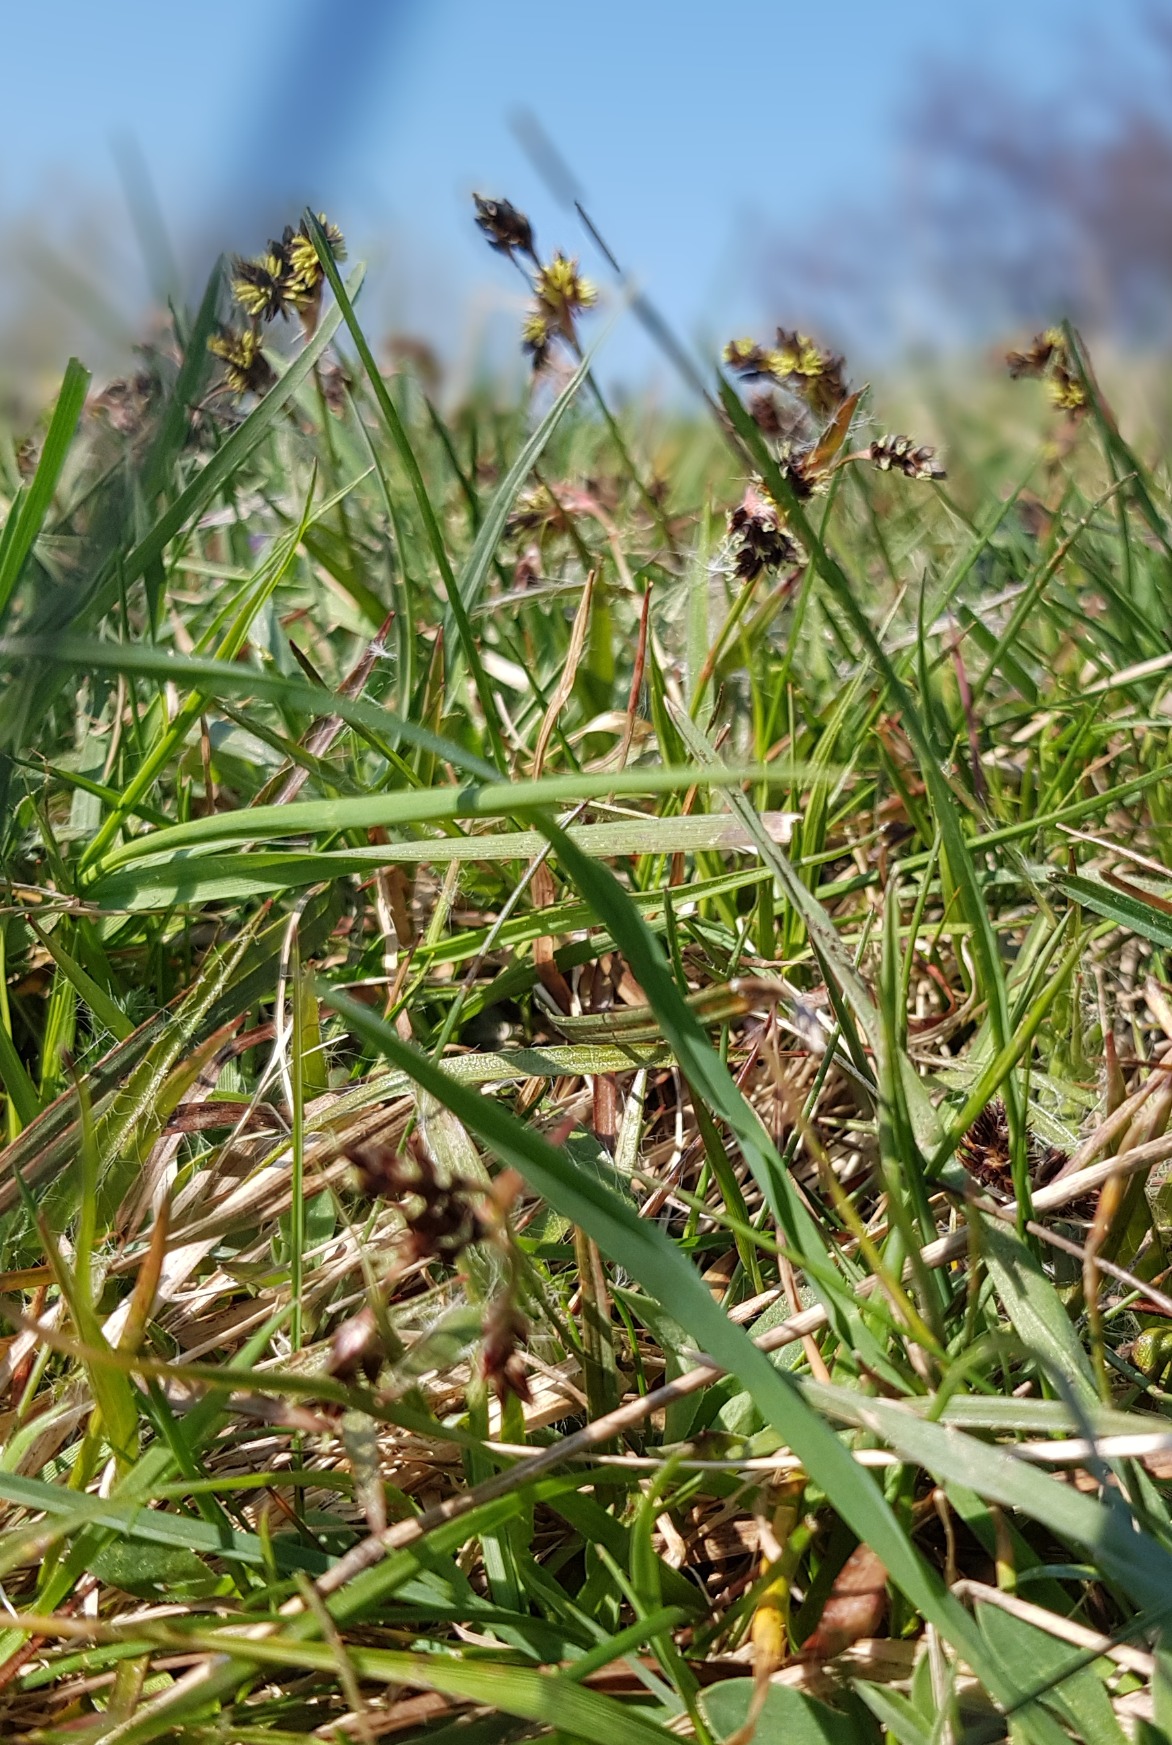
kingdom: Plantae
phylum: Tracheophyta
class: Liliopsida
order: Poales
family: Juncaceae
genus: Luzula
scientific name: Luzula campestris
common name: Mark-frytle
